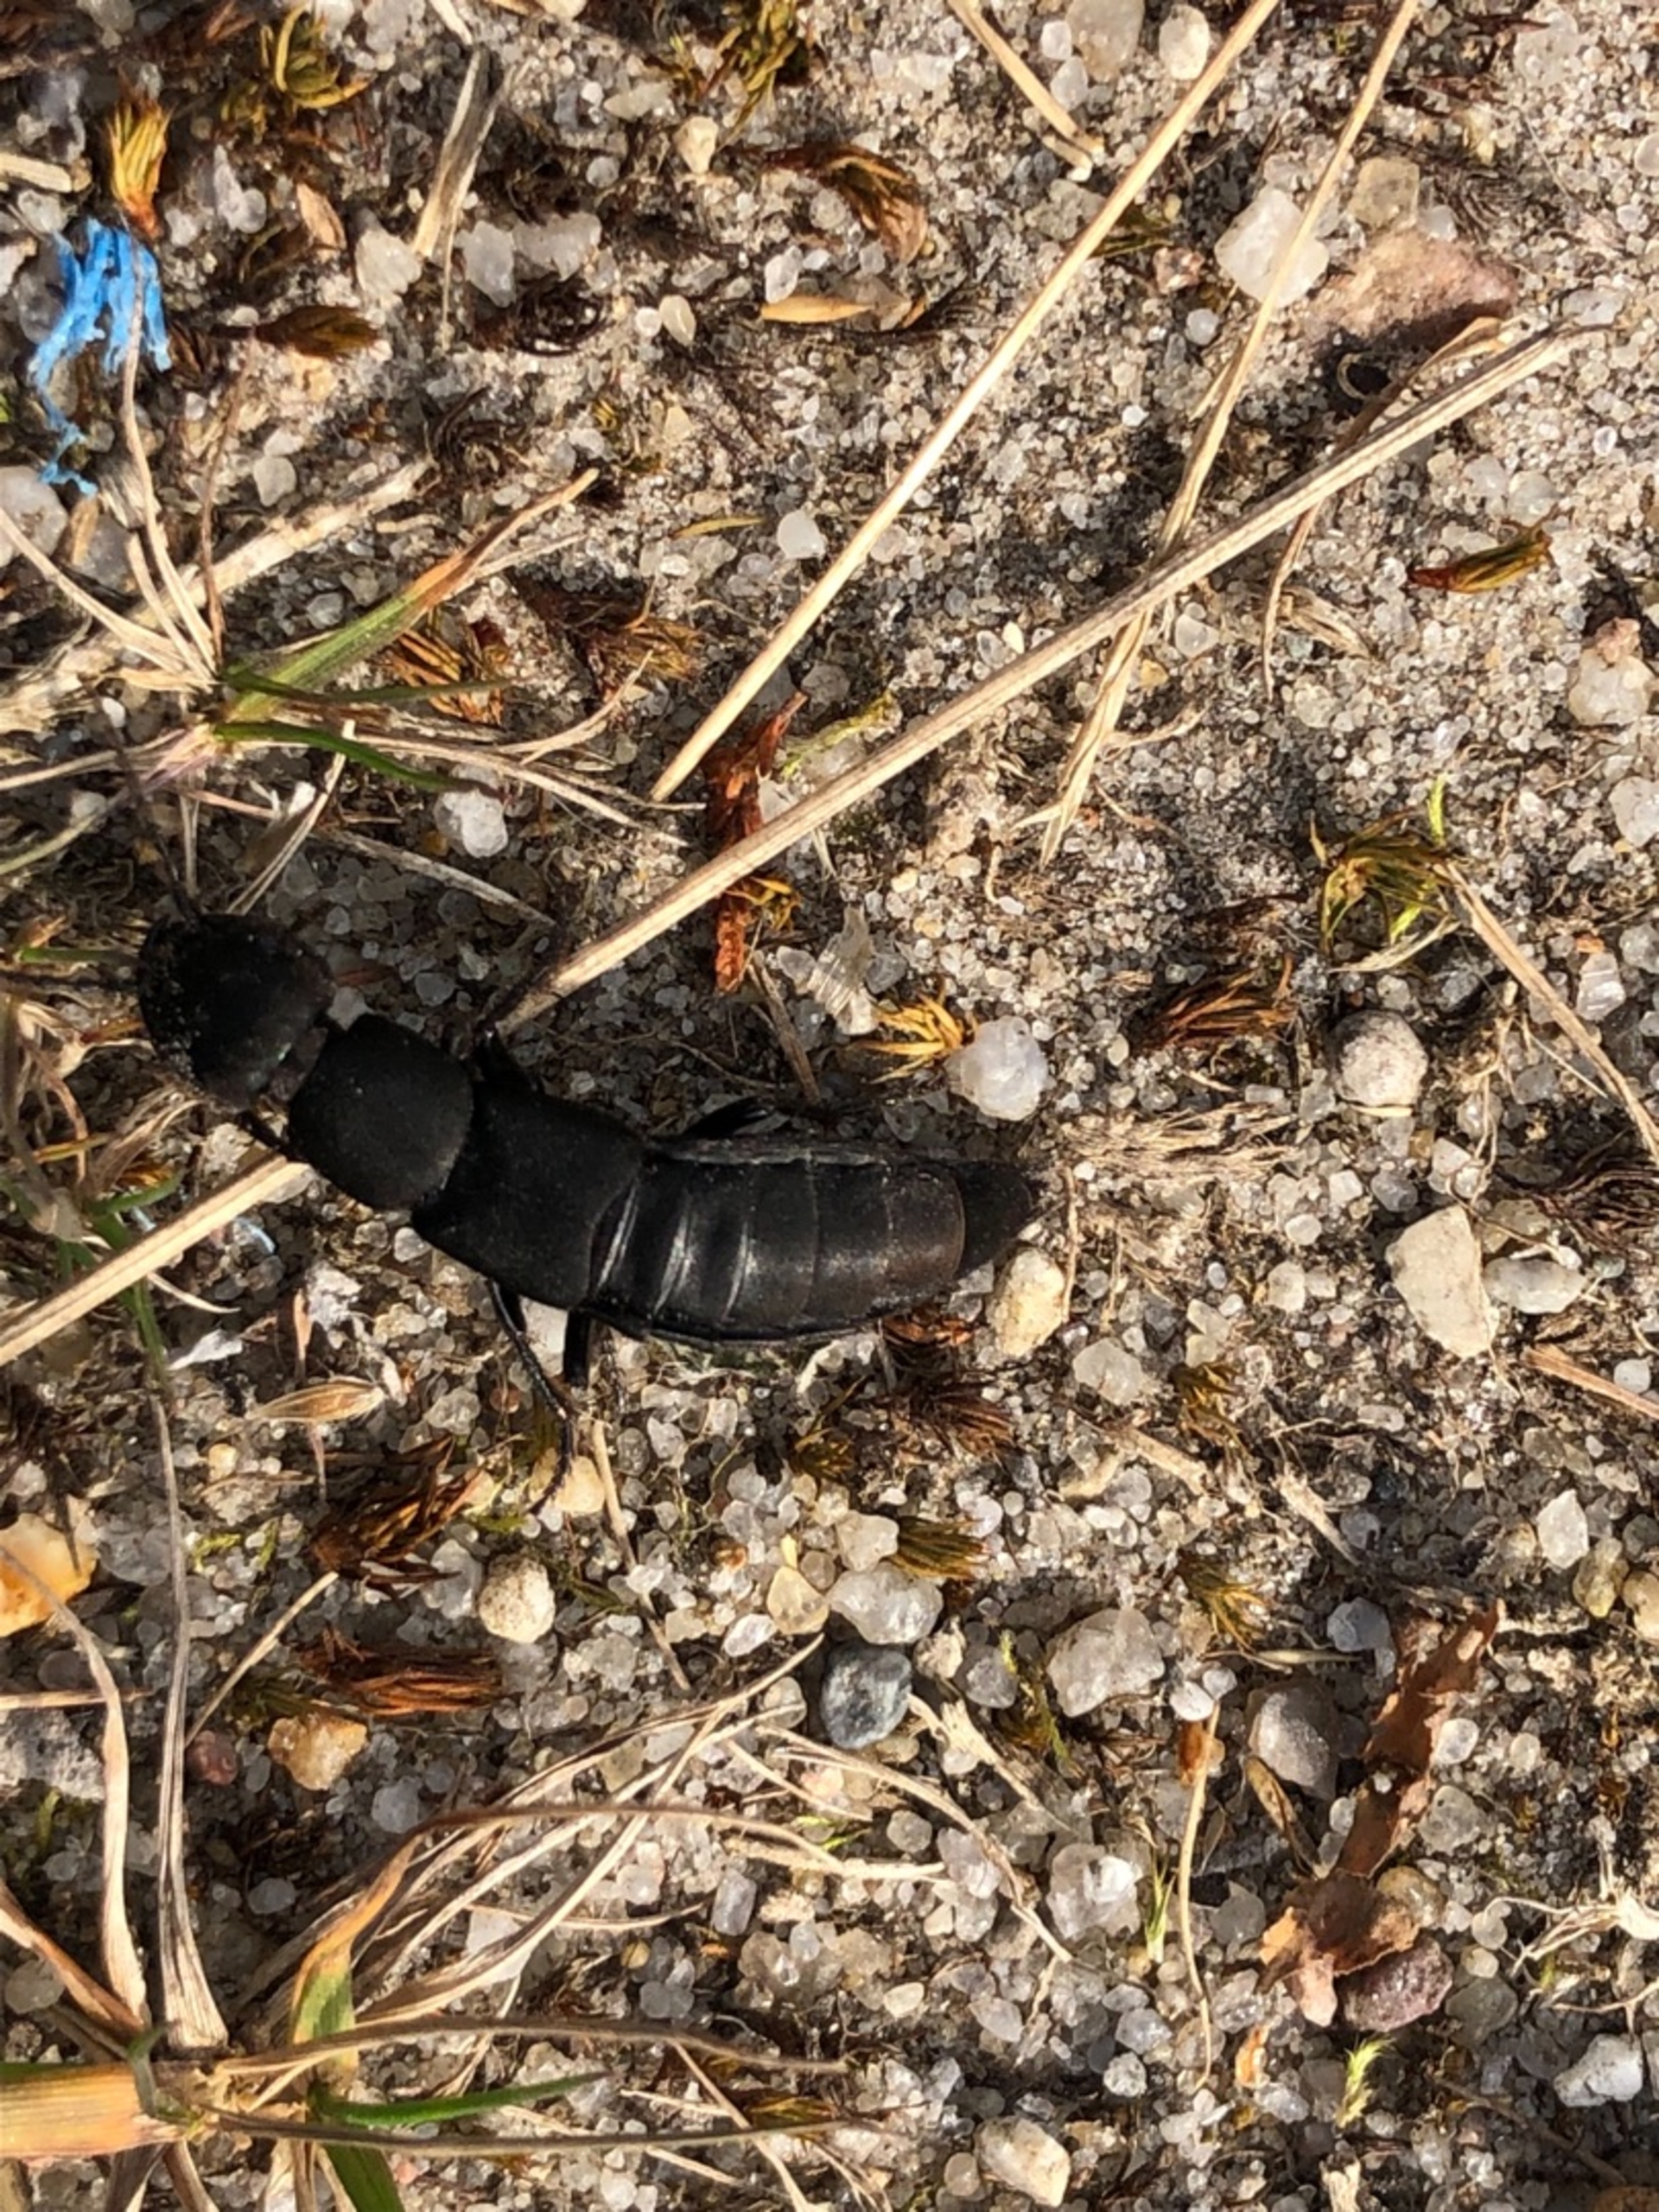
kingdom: Animalia
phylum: Arthropoda
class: Insecta
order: Coleoptera
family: Staphylinidae
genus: Ocypus
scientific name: Ocypus olens
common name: Stor rovbille
